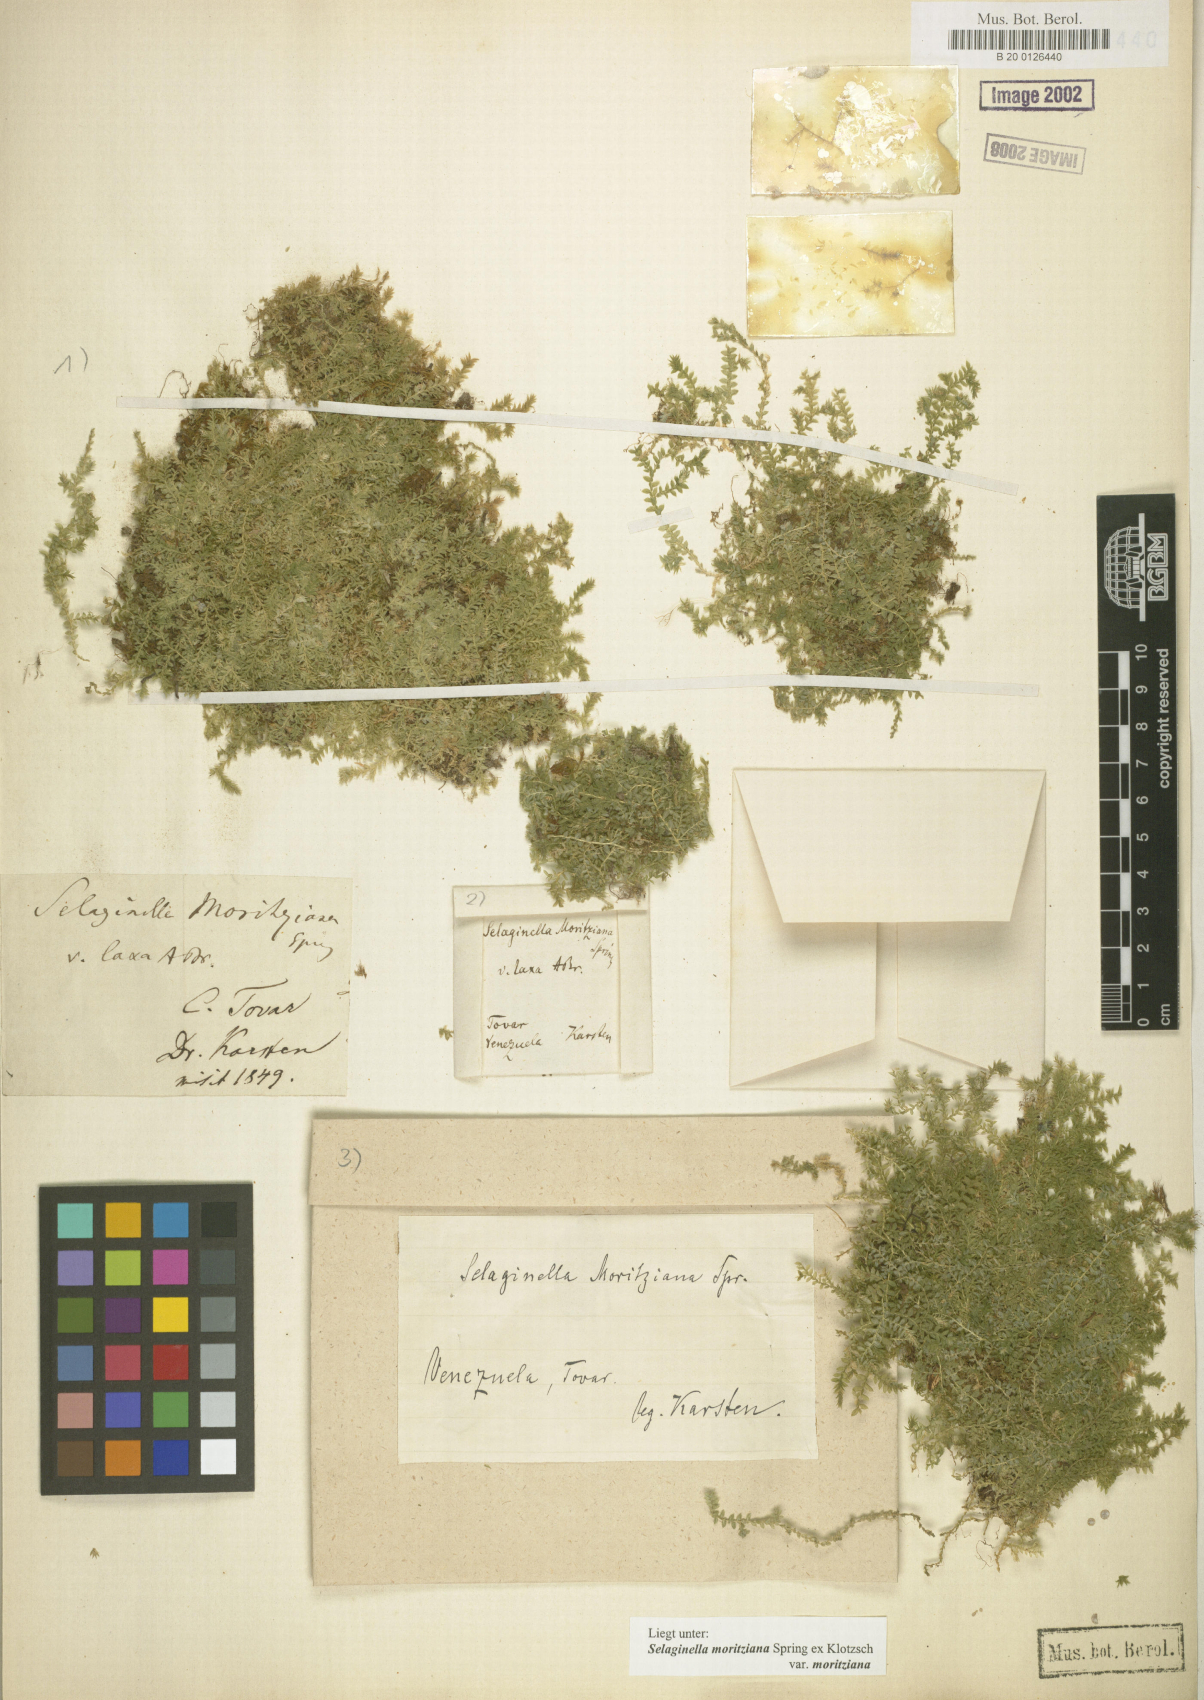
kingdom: Plantae
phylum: Tracheophyta
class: Lycopodiopsida
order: Selaginellales
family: Selaginellaceae
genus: Selaginella
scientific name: Selaginella flacca
